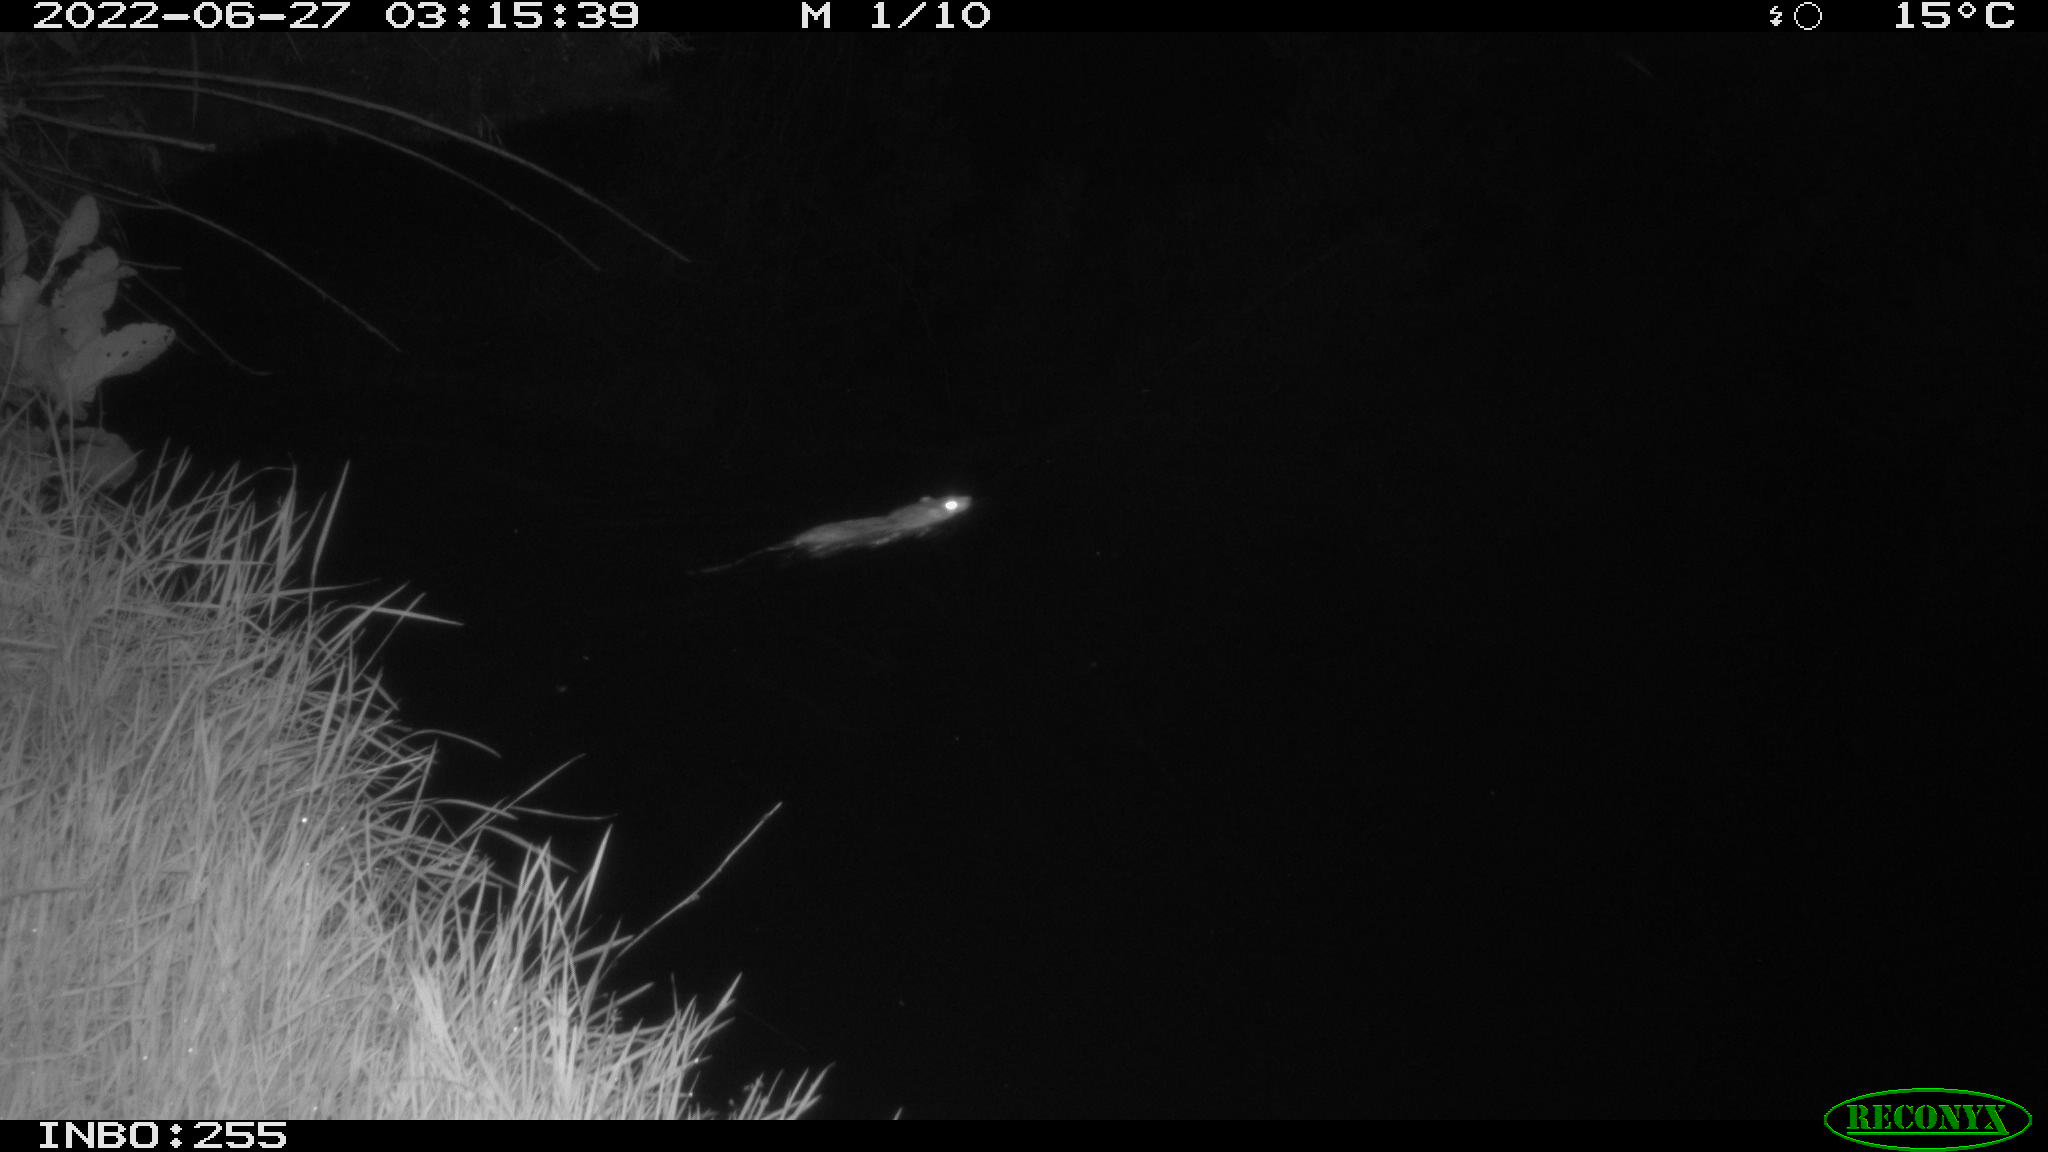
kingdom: Animalia
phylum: Chordata
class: Mammalia
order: Rodentia
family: Muridae
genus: Rattus
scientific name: Rattus norvegicus
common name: Brown rat
